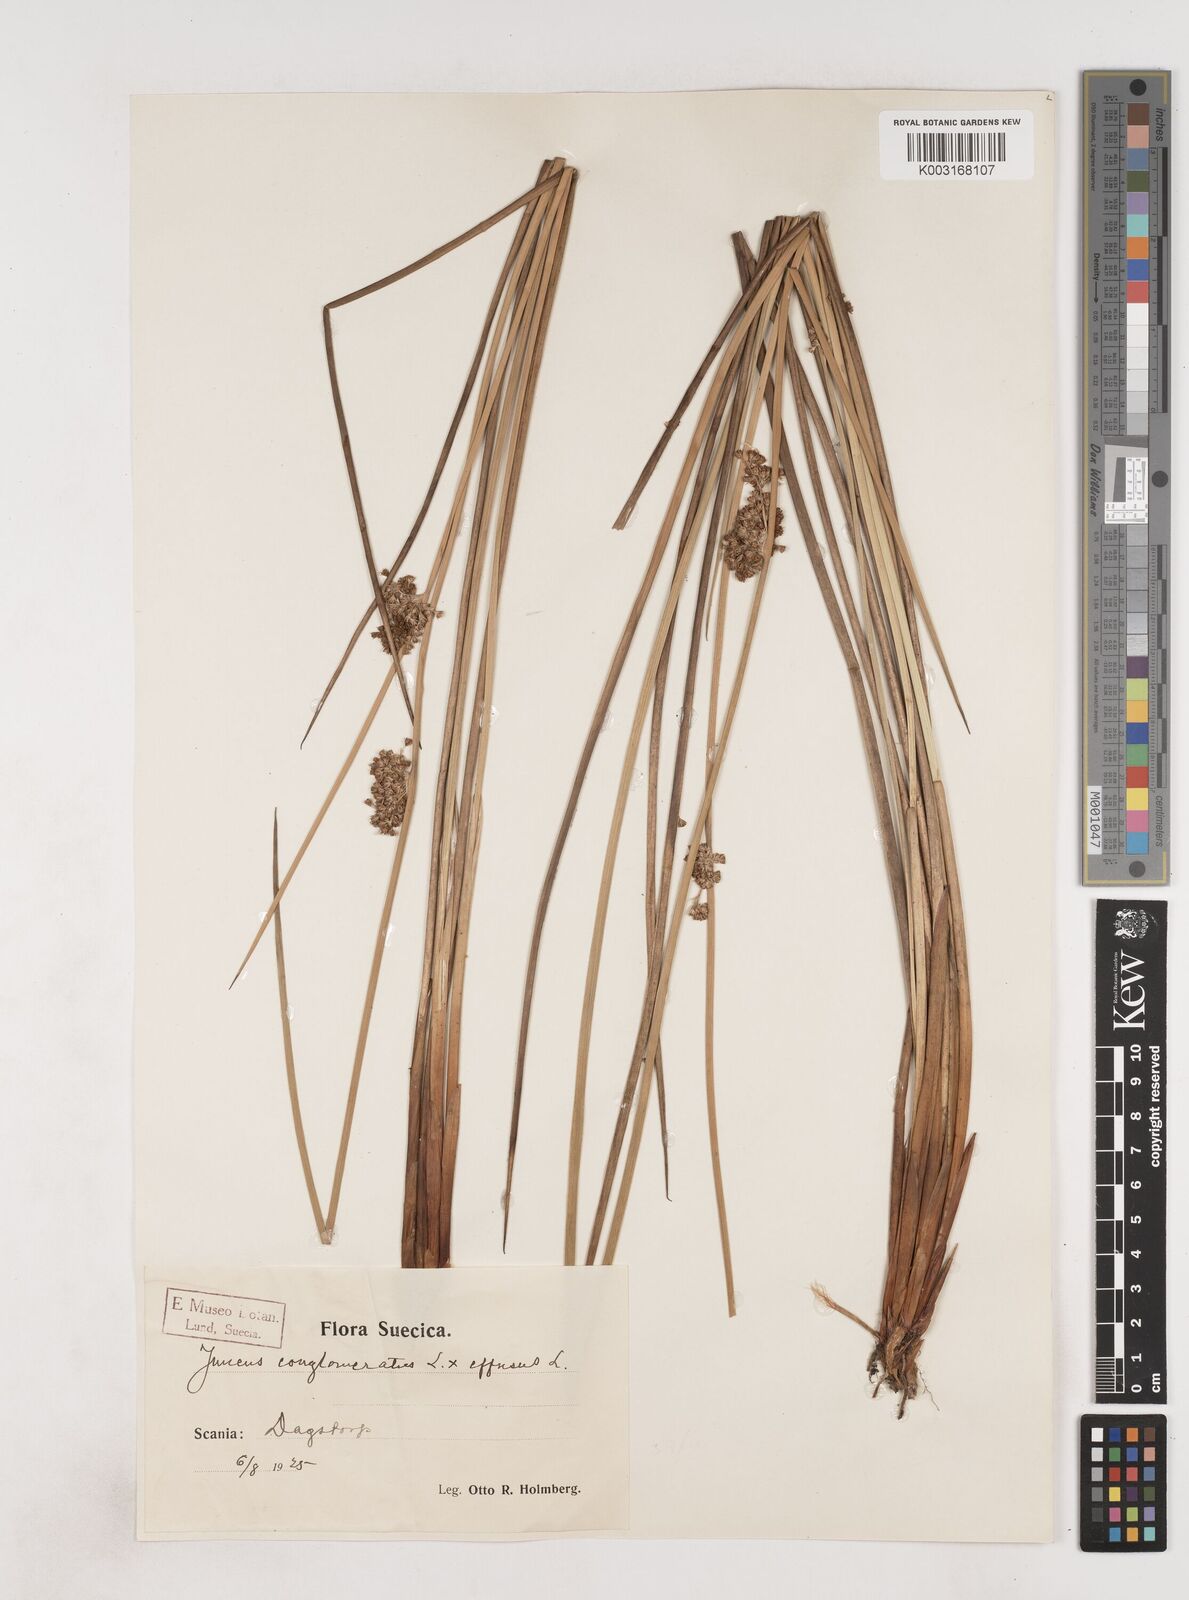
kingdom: Plantae
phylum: Tracheophyta
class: Liliopsida
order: Poales
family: Juncaceae
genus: Juncus
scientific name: Juncus conglomeratus
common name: Compact rush
